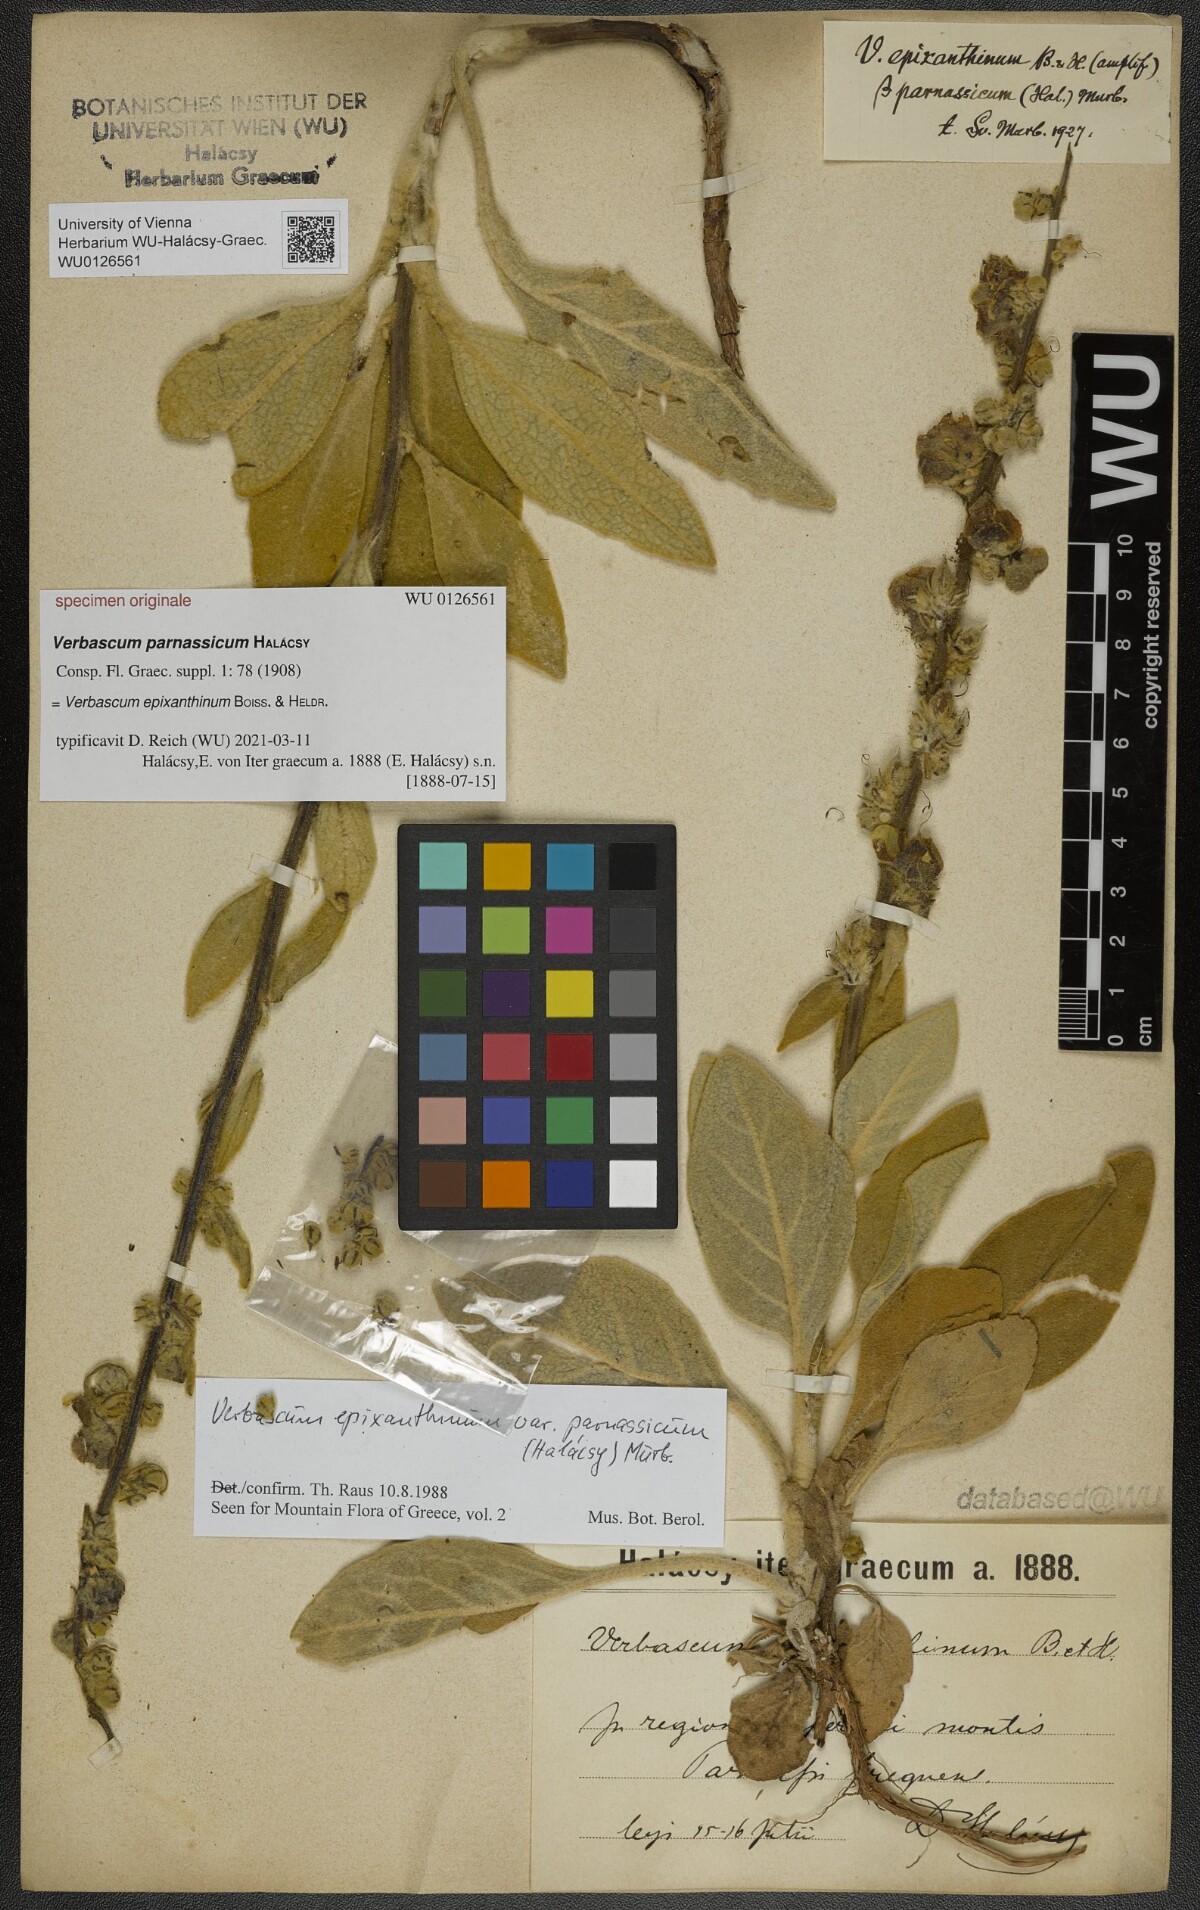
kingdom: Plantae
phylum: Tracheophyta
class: Magnoliopsida
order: Lamiales
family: Scrophulariaceae
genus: Verbascum
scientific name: Verbascum epixanthinum
